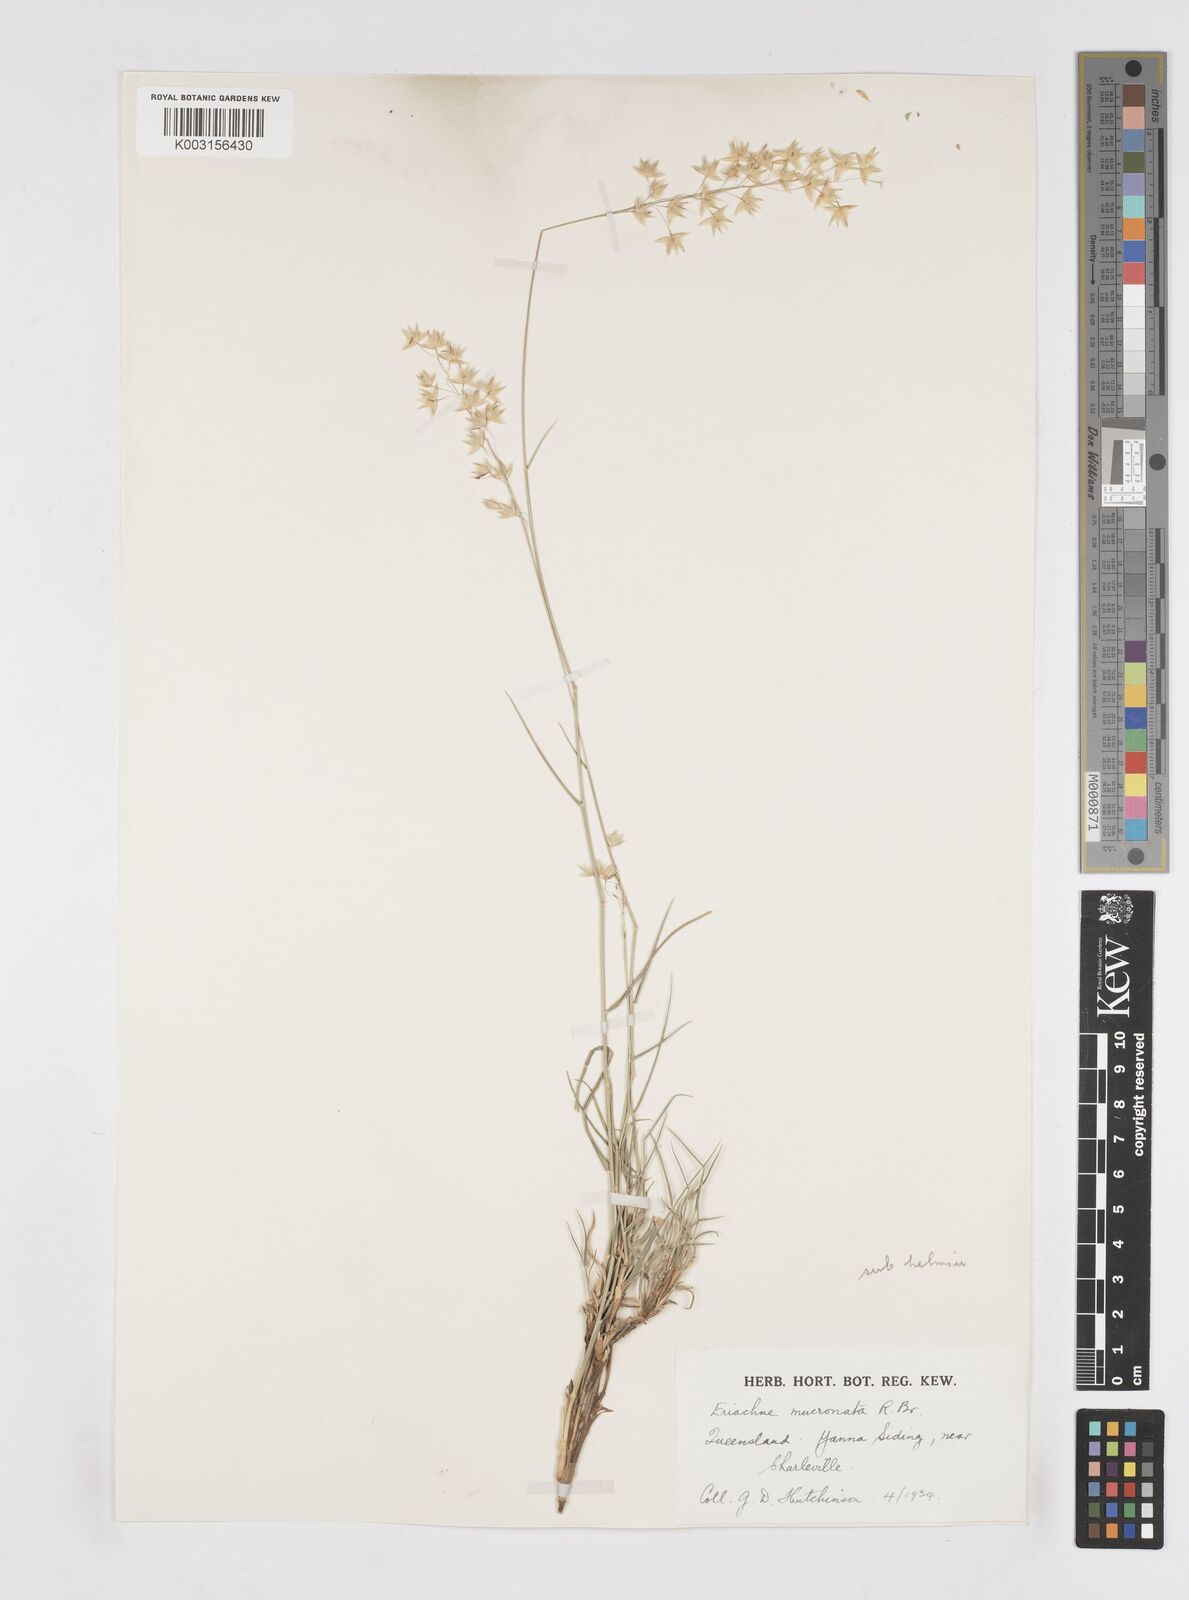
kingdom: Plantae
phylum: Tracheophyta
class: Liliopsida
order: Poales
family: Poaceae
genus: Eriachne
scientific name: Eriachne mucronata
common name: Mountain wanderrie grass
